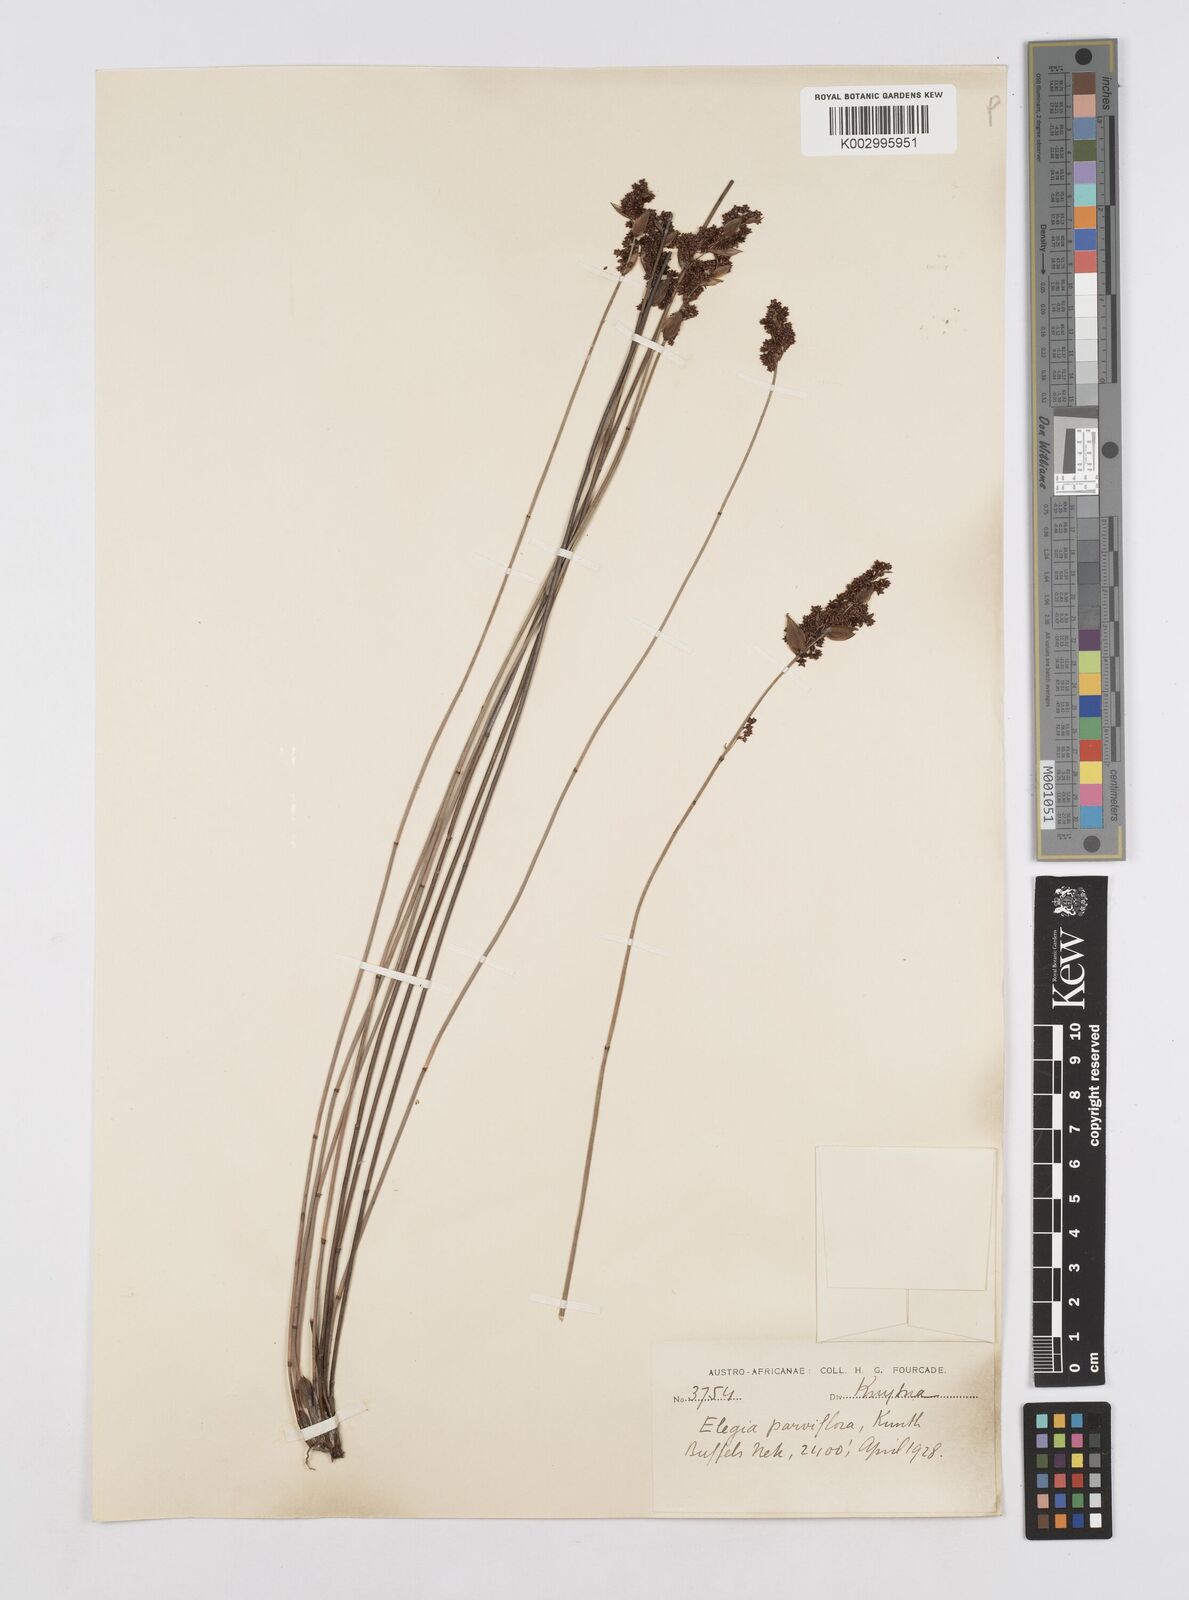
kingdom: Plantae
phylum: Tracheophyta
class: Liliopsida
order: Poales
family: Restionaceae
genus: Cannomois
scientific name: Cannomois parviflora
